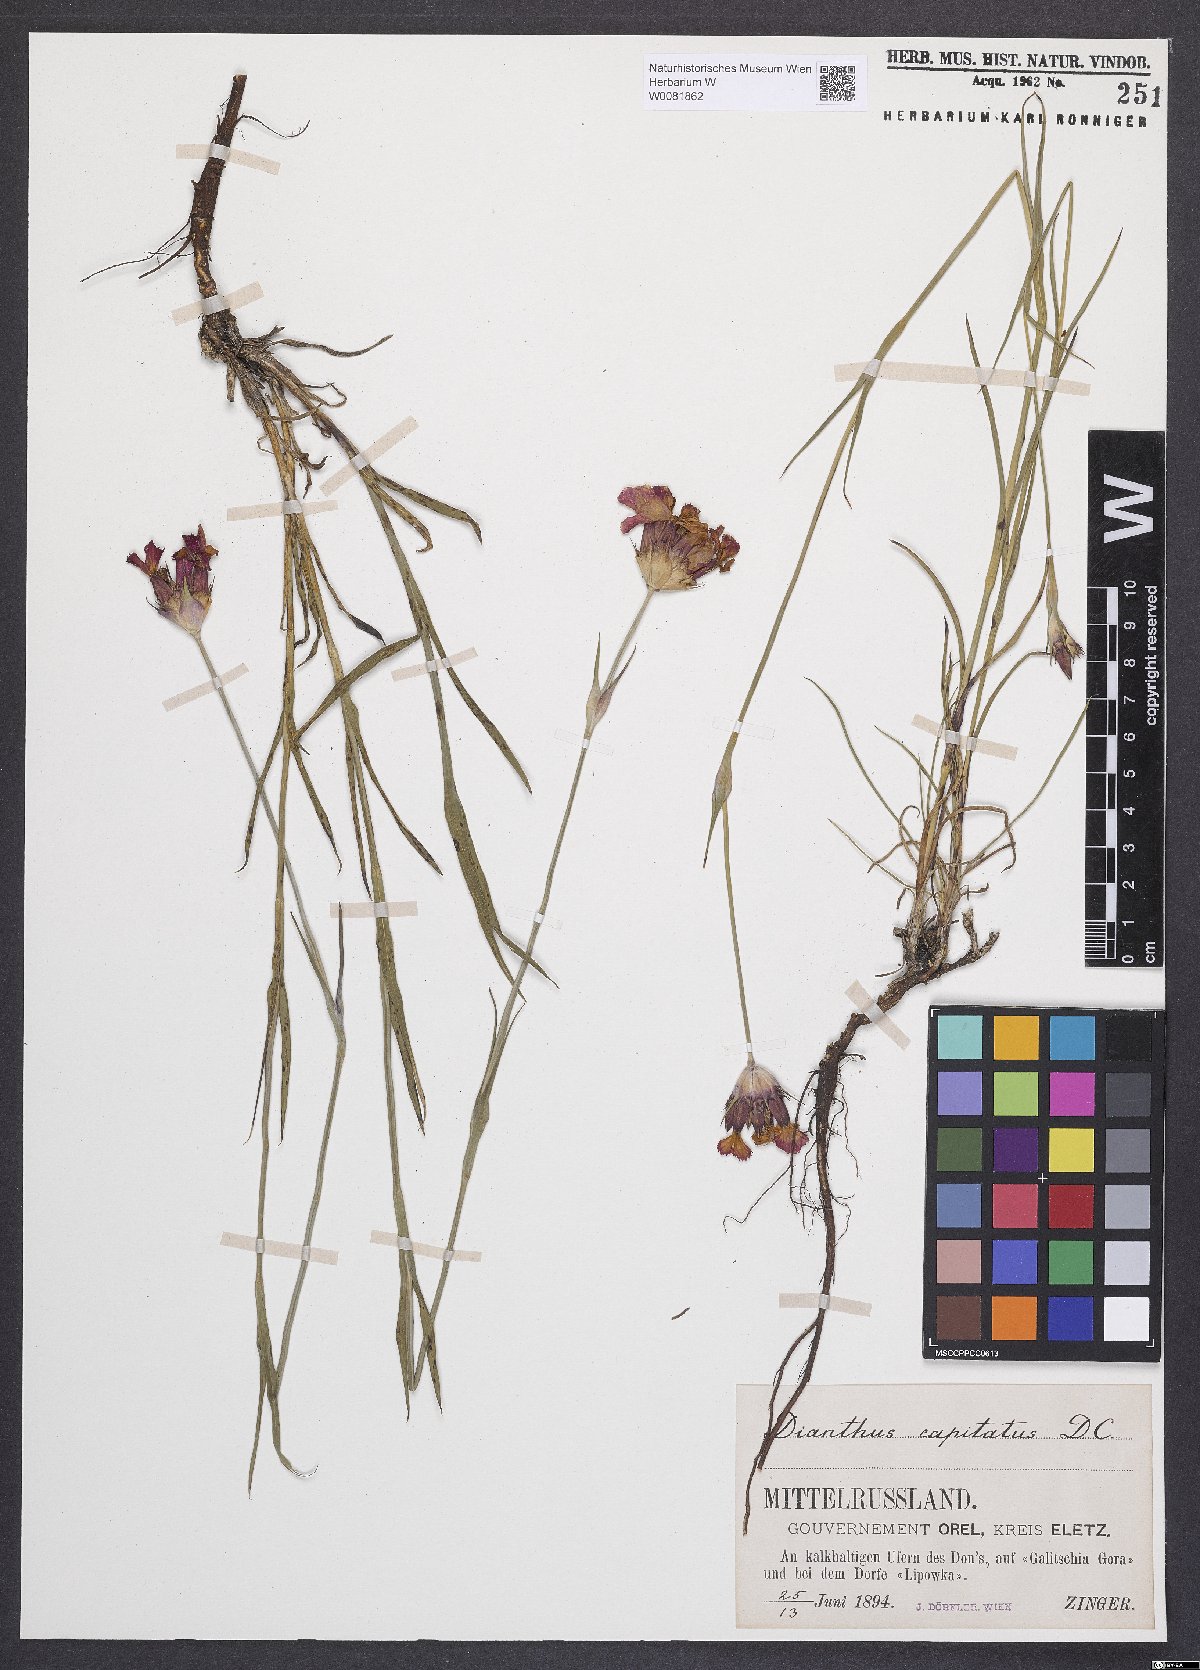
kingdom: Plantae
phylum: Tracheophyta
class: Magnoliopsida
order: Caryophyllales
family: Caryophyllaceae
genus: Dianthus
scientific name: Dianthus capitatus
